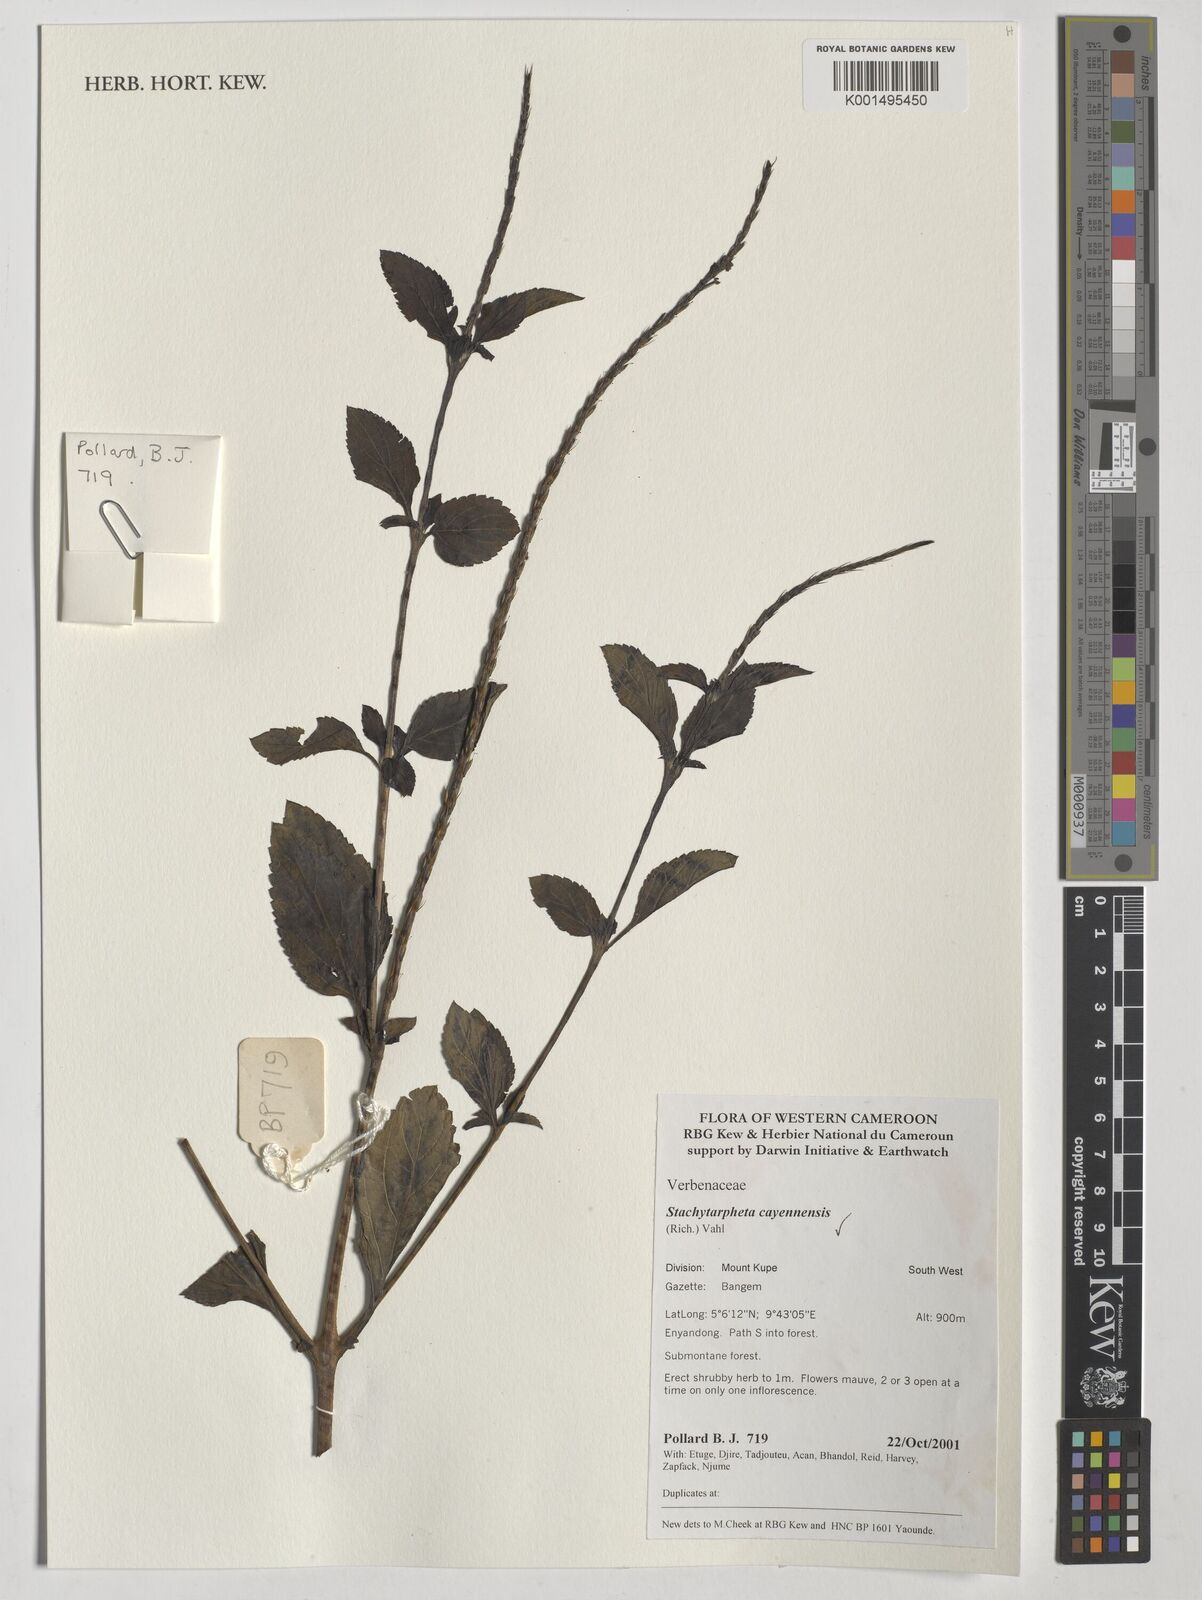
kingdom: Plantae
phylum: Tracheophyta
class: Magnoliopsida
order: Lamiales
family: Verbenaceae
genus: Stachytarpheta
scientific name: Stachytarpheta cayennensis
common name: Cayenne porterweed
